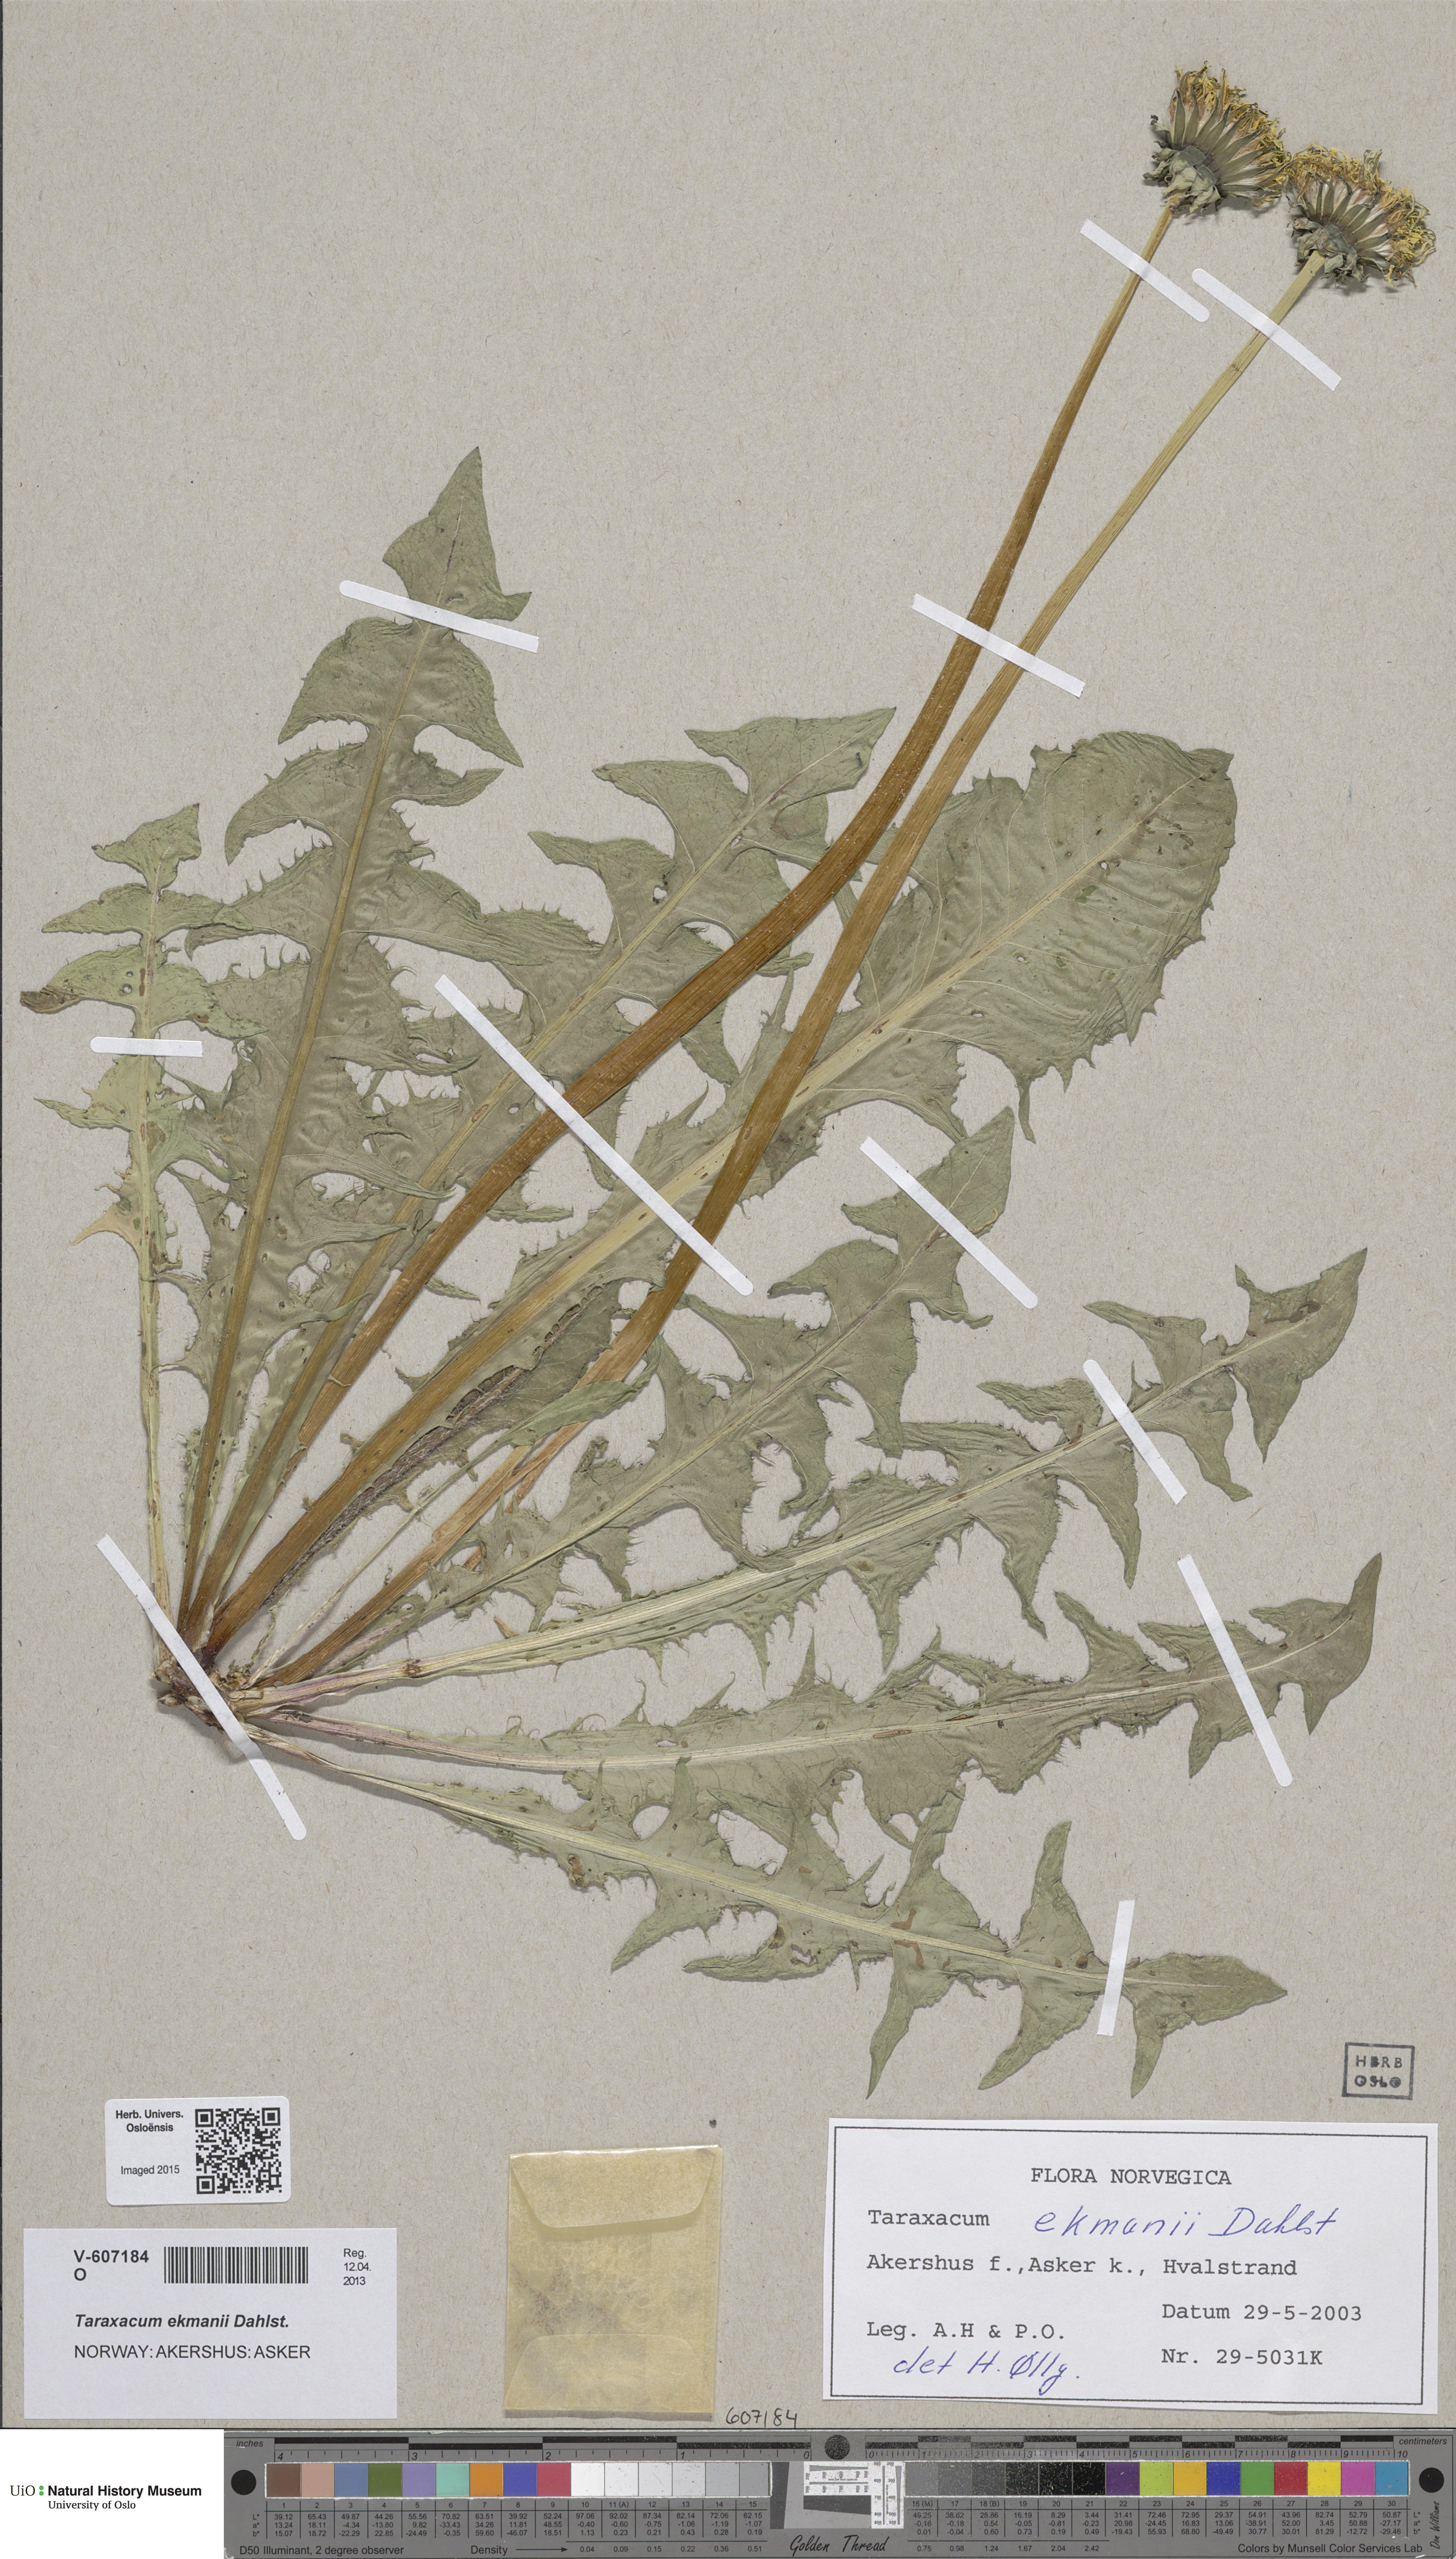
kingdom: Plantae
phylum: Tracheophyta
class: Magnoliopsida
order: Asterales
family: Asteraceae
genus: Taraxacum
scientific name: Taraxacum ekmanii
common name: Ekman's dandelion
